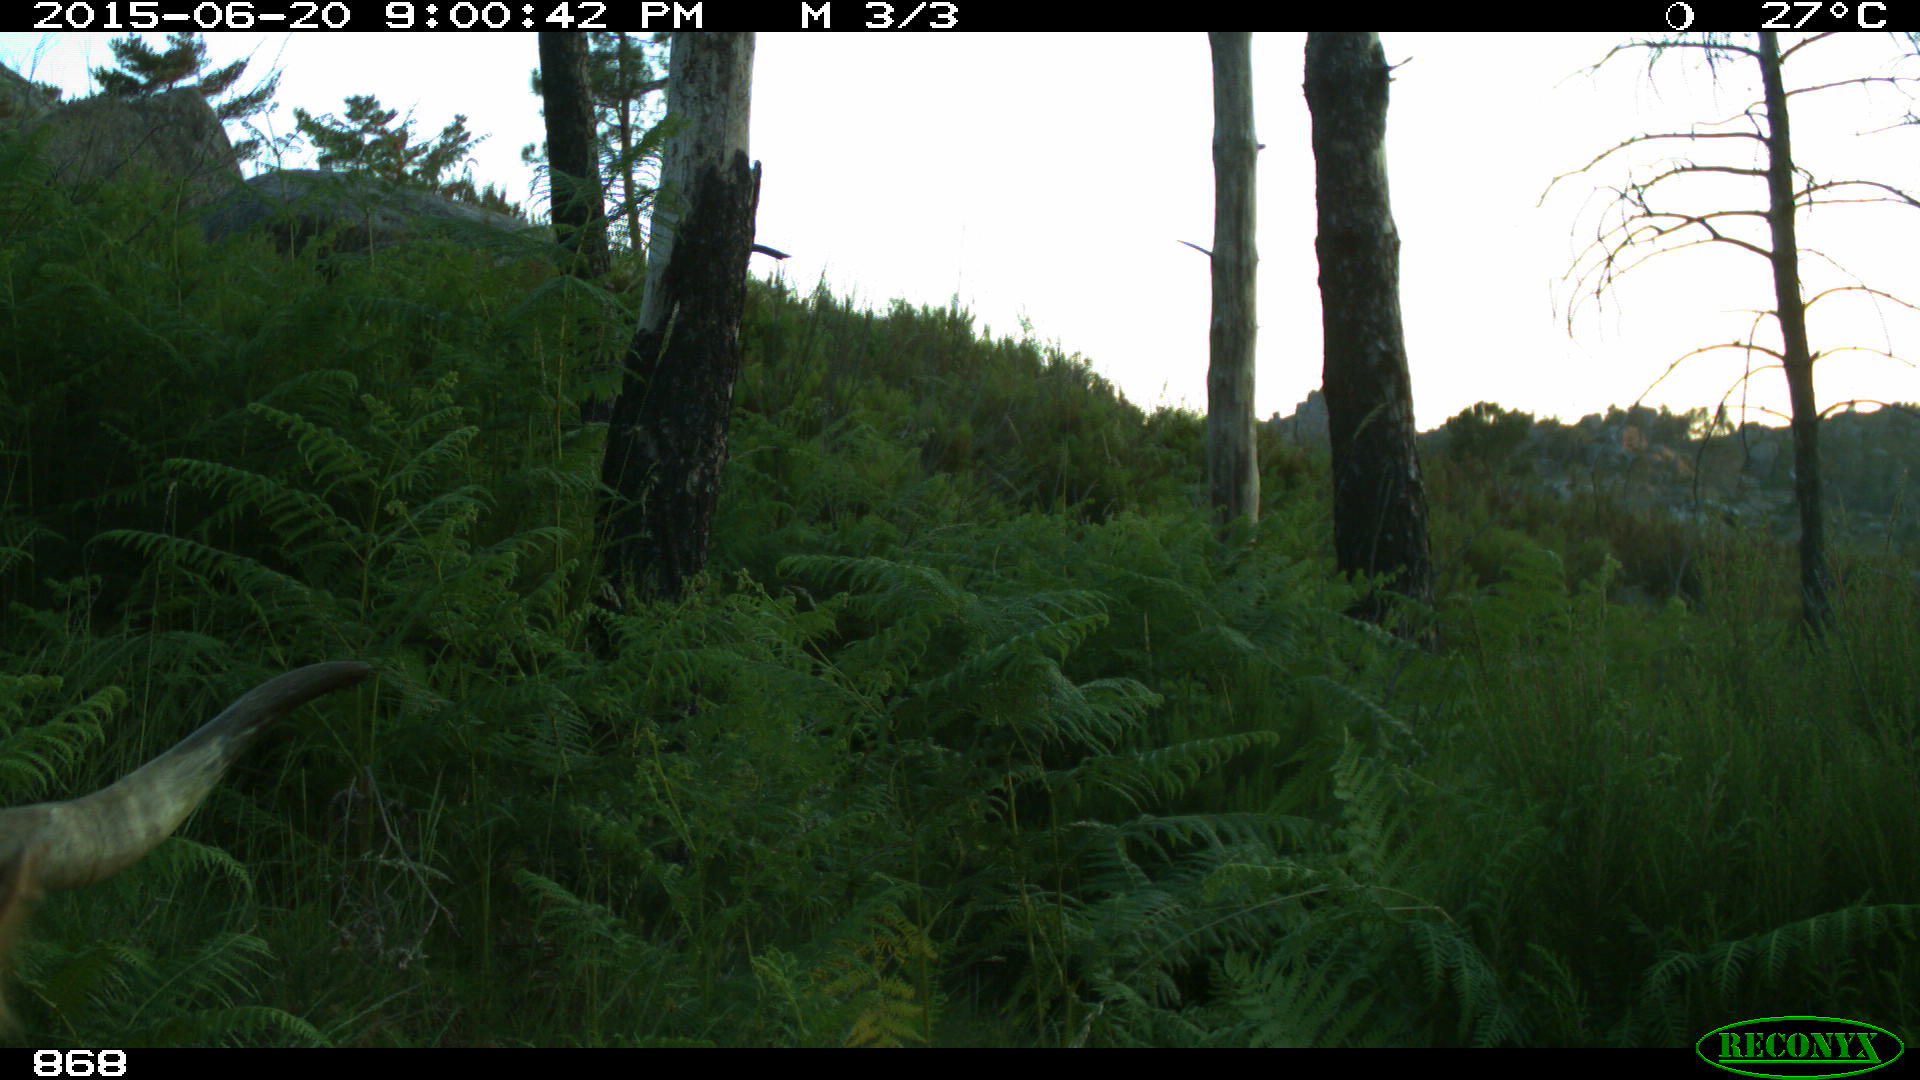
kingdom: Animalia
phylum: Chordata
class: Mammalia
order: Artiodactyla
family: Bovidae
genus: Bos
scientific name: Bos taurus
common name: Domesticated cattle
